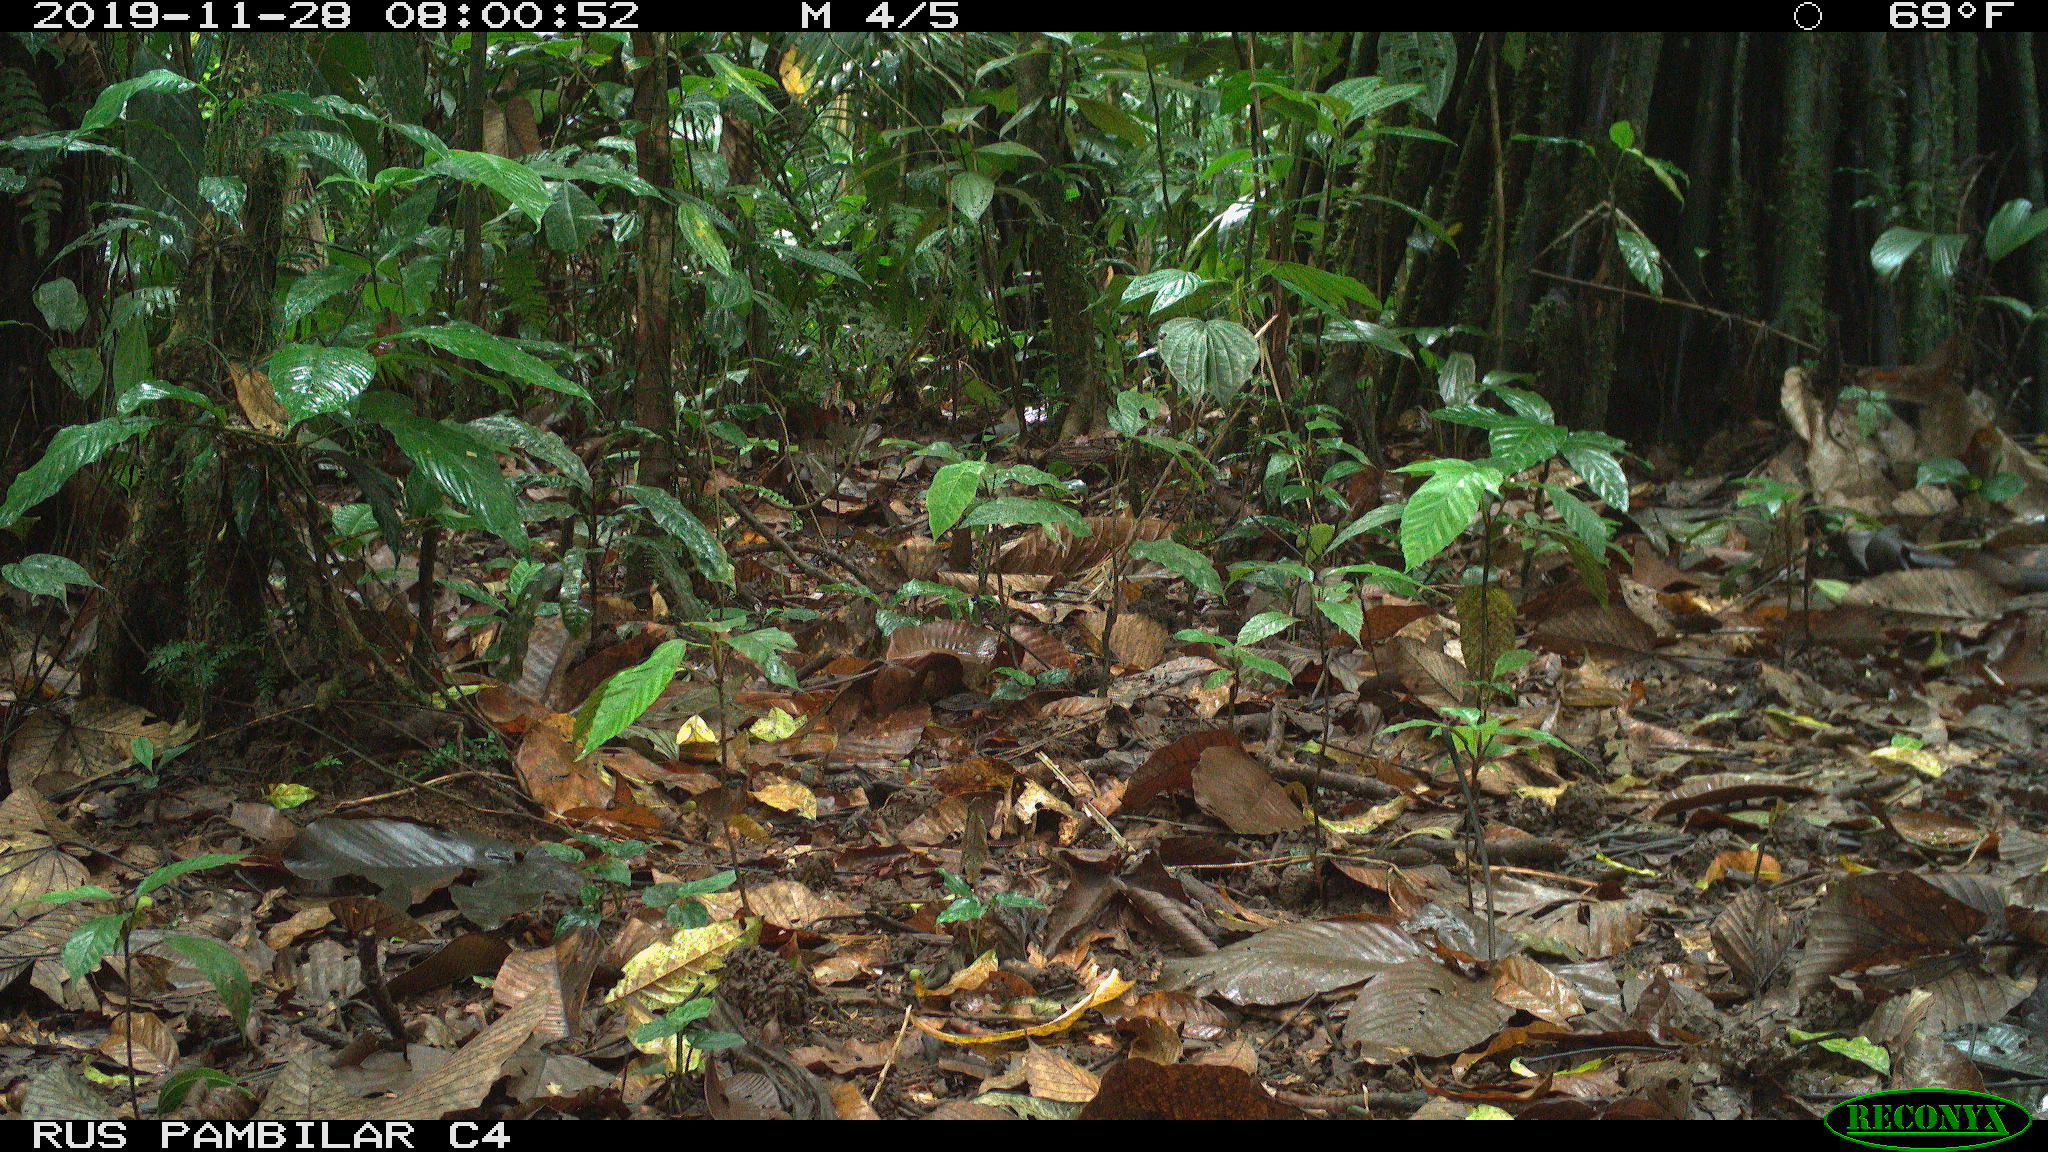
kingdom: Animalia
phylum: Chordata
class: Mammalia
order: Rodentia
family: Dasyproctidae
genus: Dasyprocta
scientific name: Dasyprocta punctata
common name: Central american agouti
